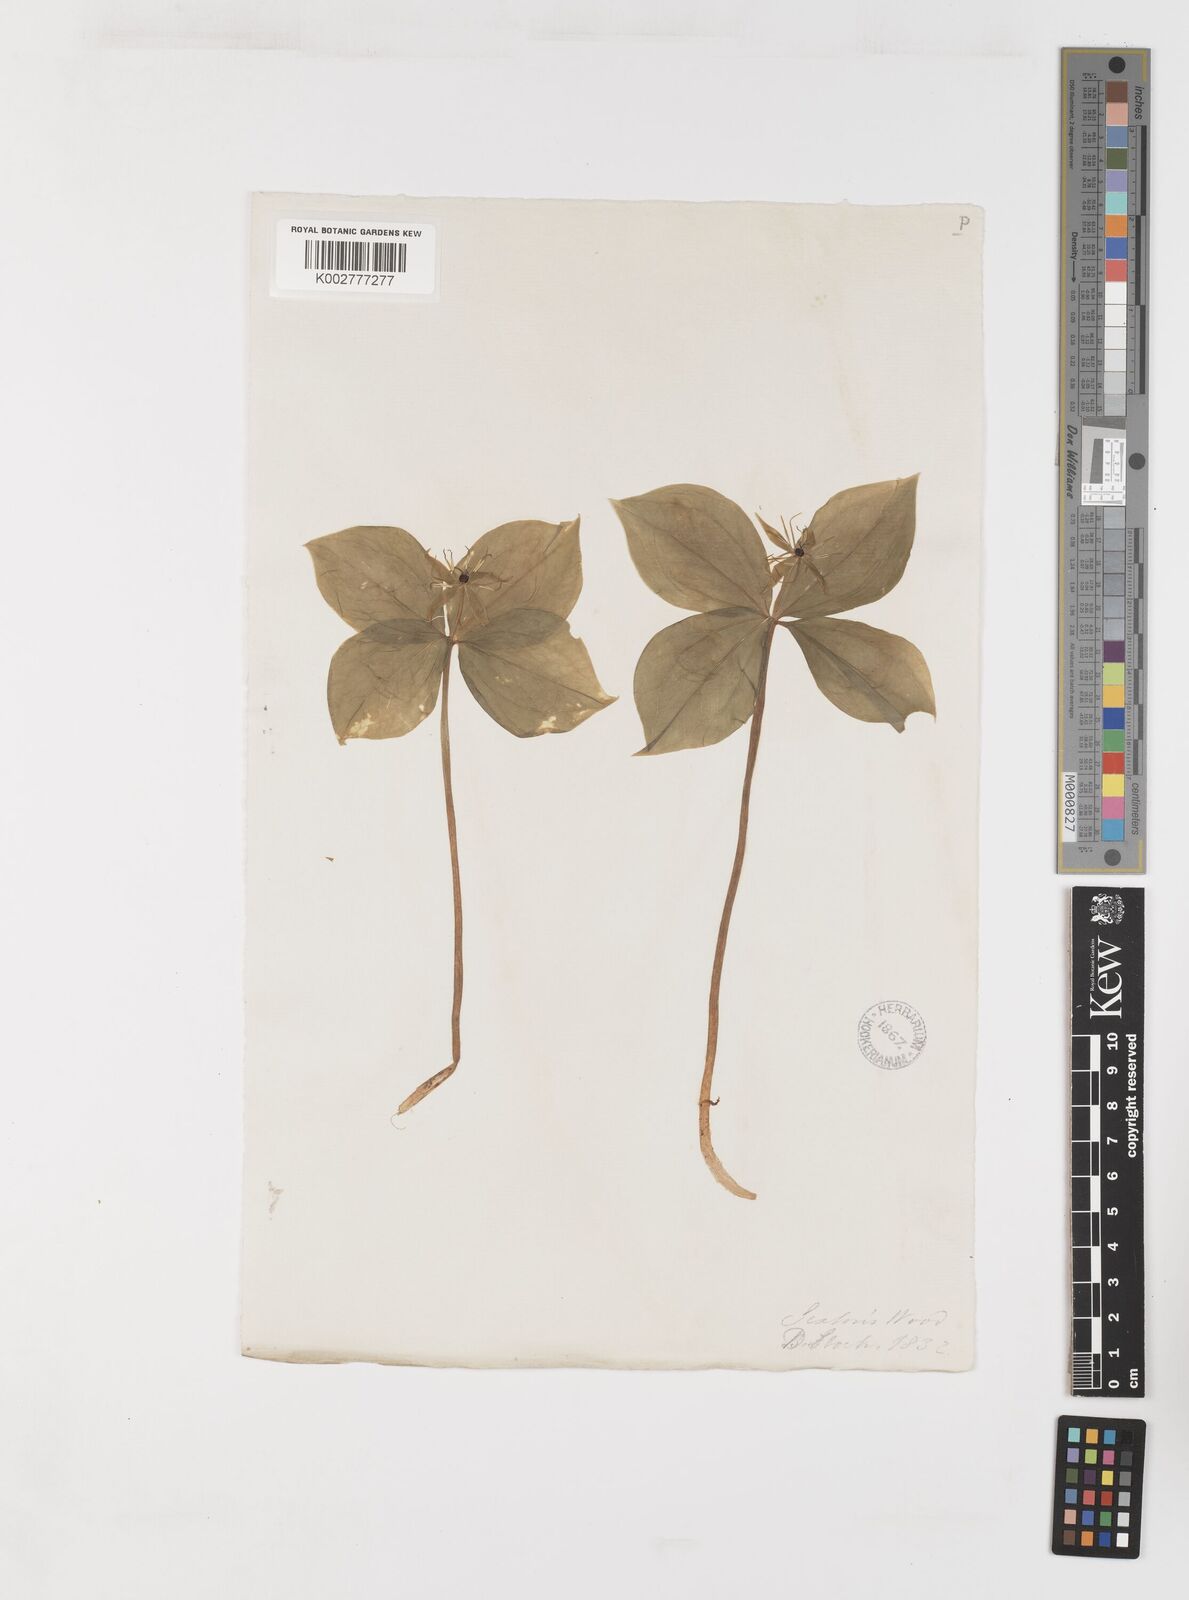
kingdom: Plantae
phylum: Tracheophyta
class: Liliopsida
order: Liliales
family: Melanthiaceae
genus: Paris
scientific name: Paris quadrifolia
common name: Herb-paris
